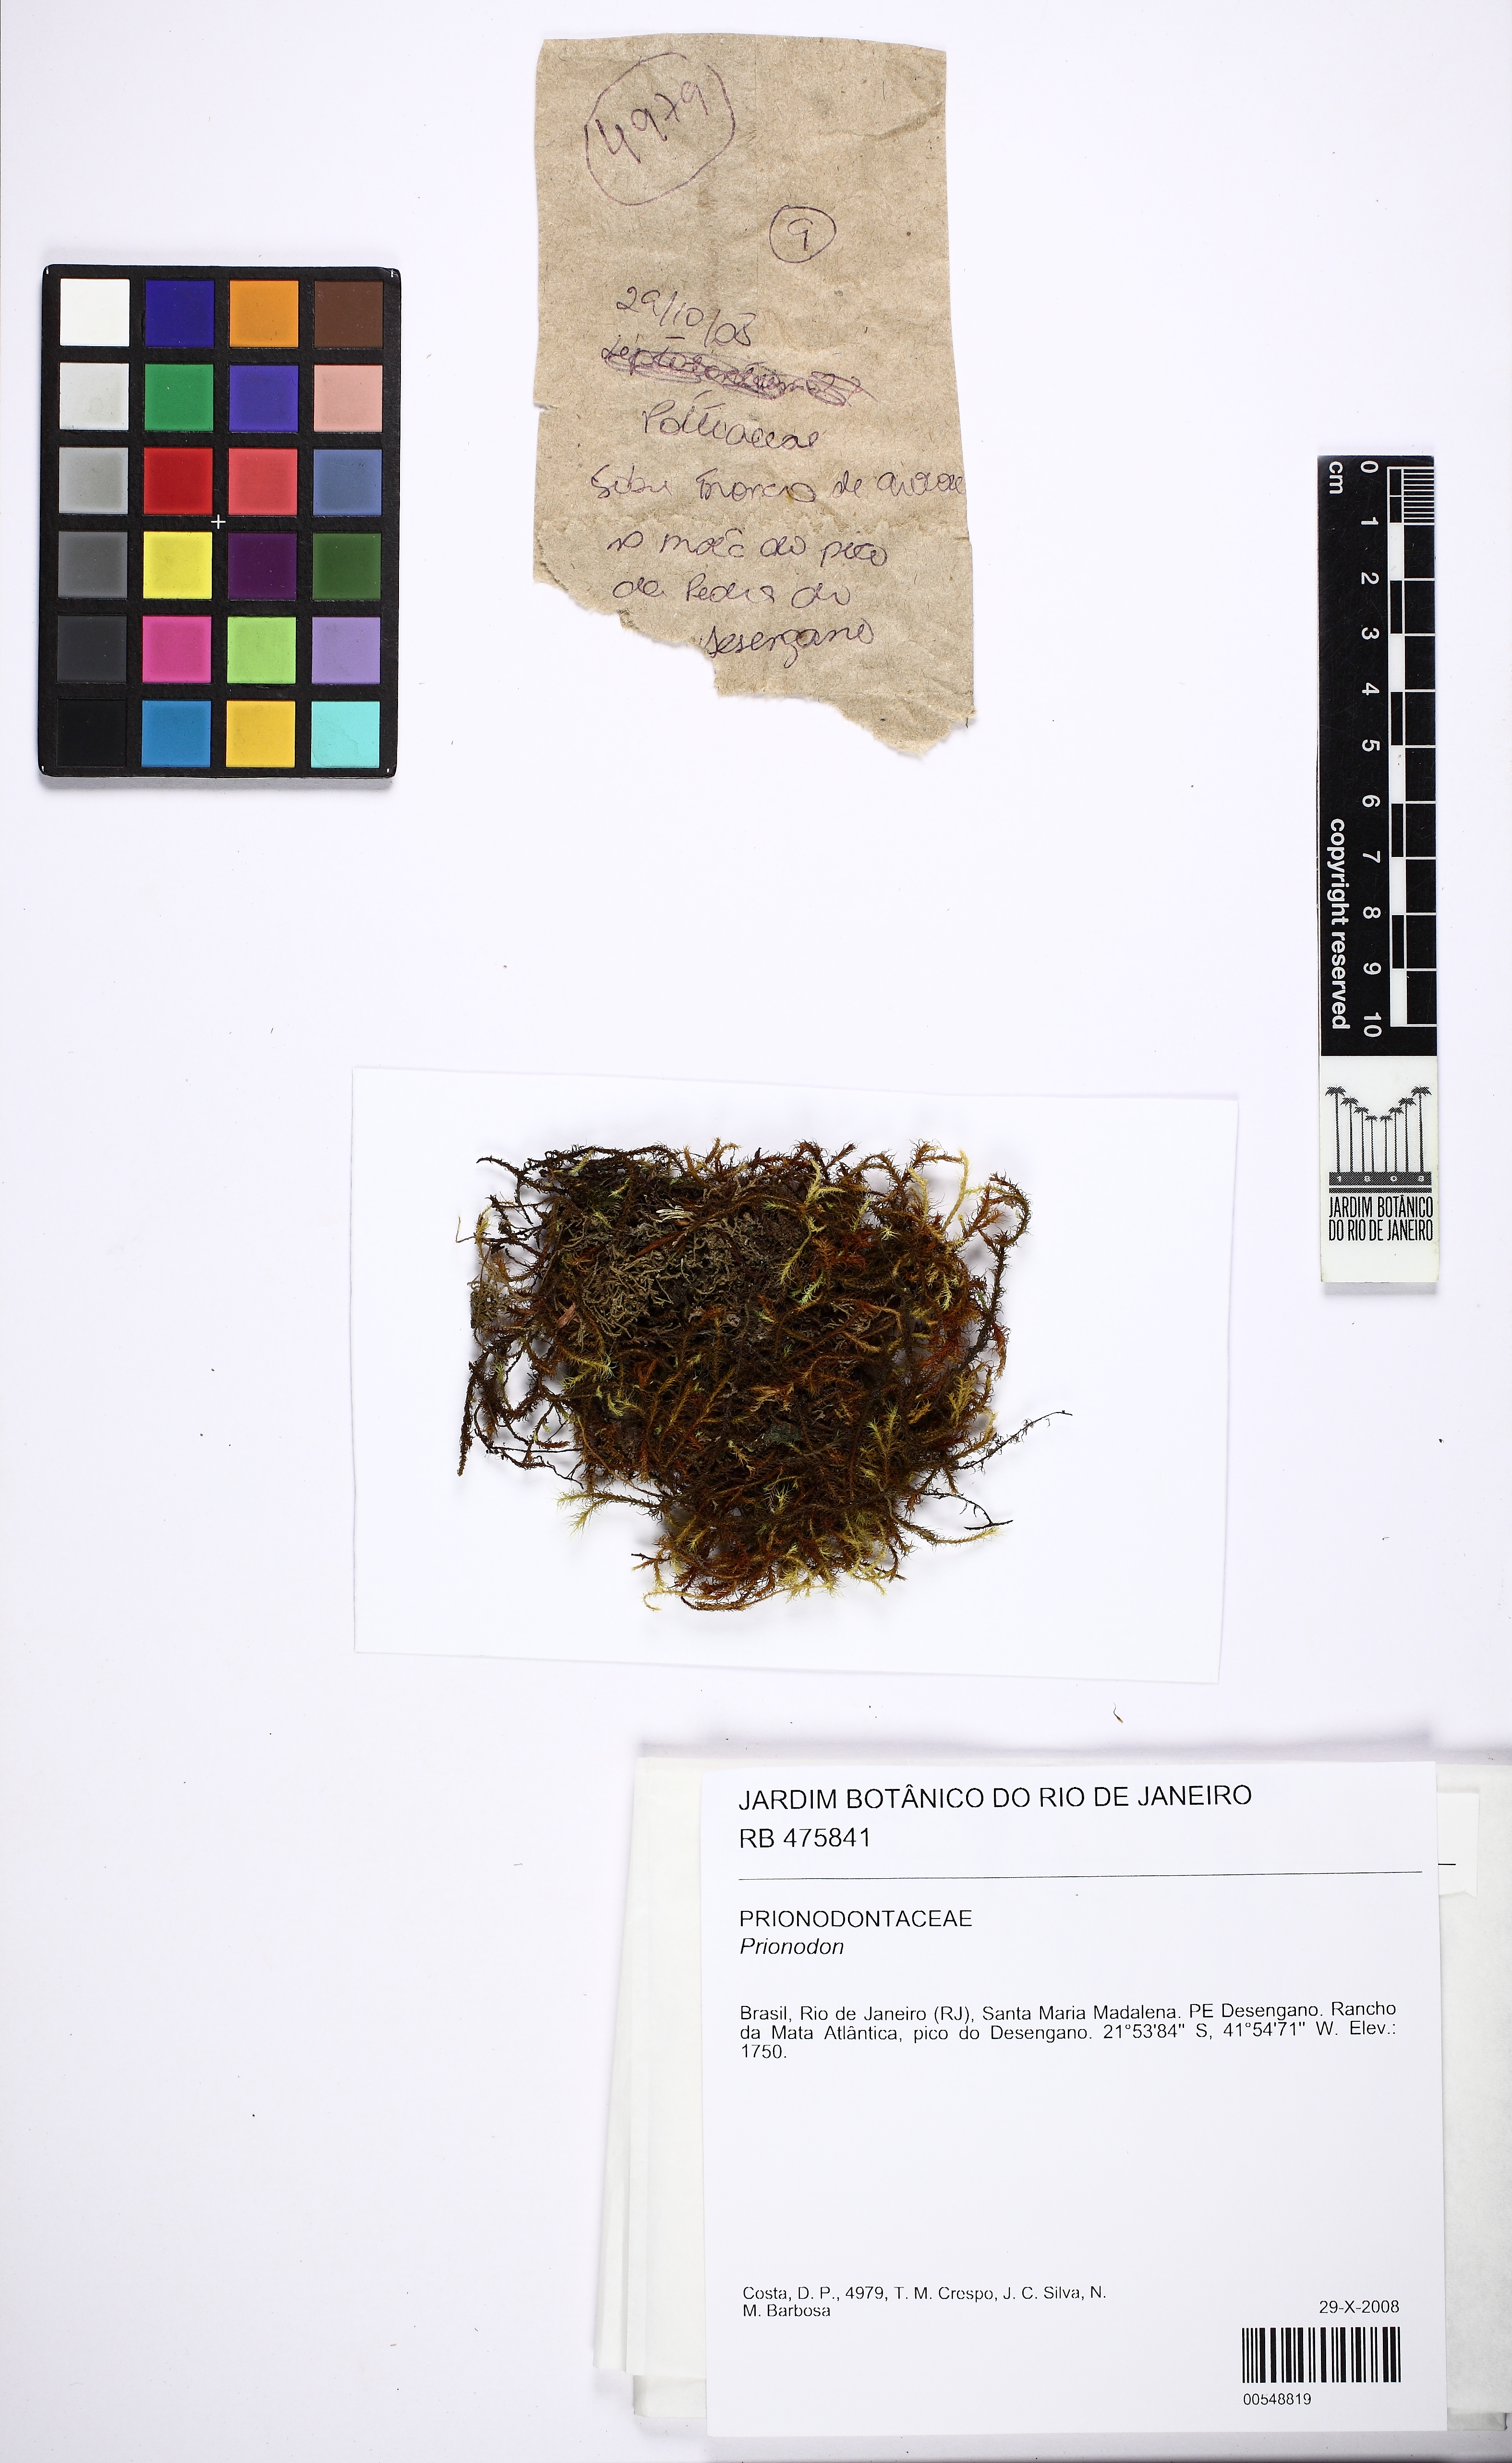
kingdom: Plantae
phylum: Bryophyta
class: Bryopsida
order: Hypnales
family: Prionodontaceae
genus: Prionodon
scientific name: Prionodon
